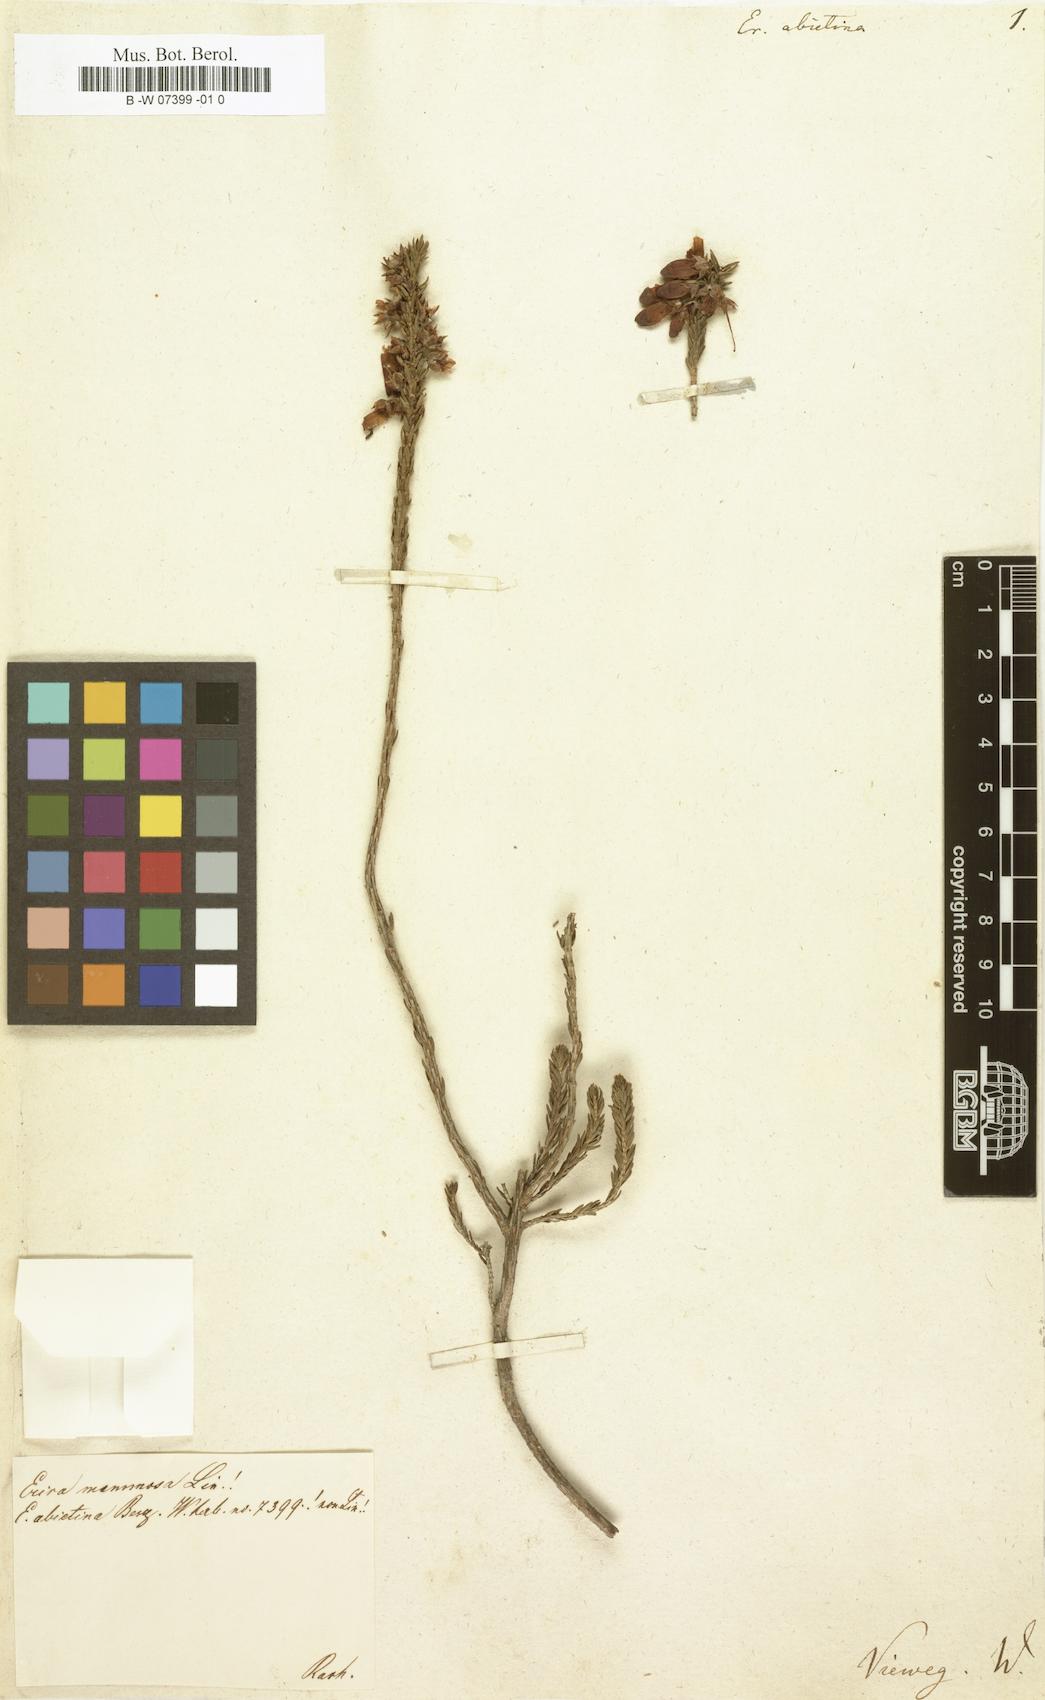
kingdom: Plantae
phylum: Tracheophyta
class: Magnoliopsida
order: Ericales
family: Ericaceae
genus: Erica
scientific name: Erica abietina
